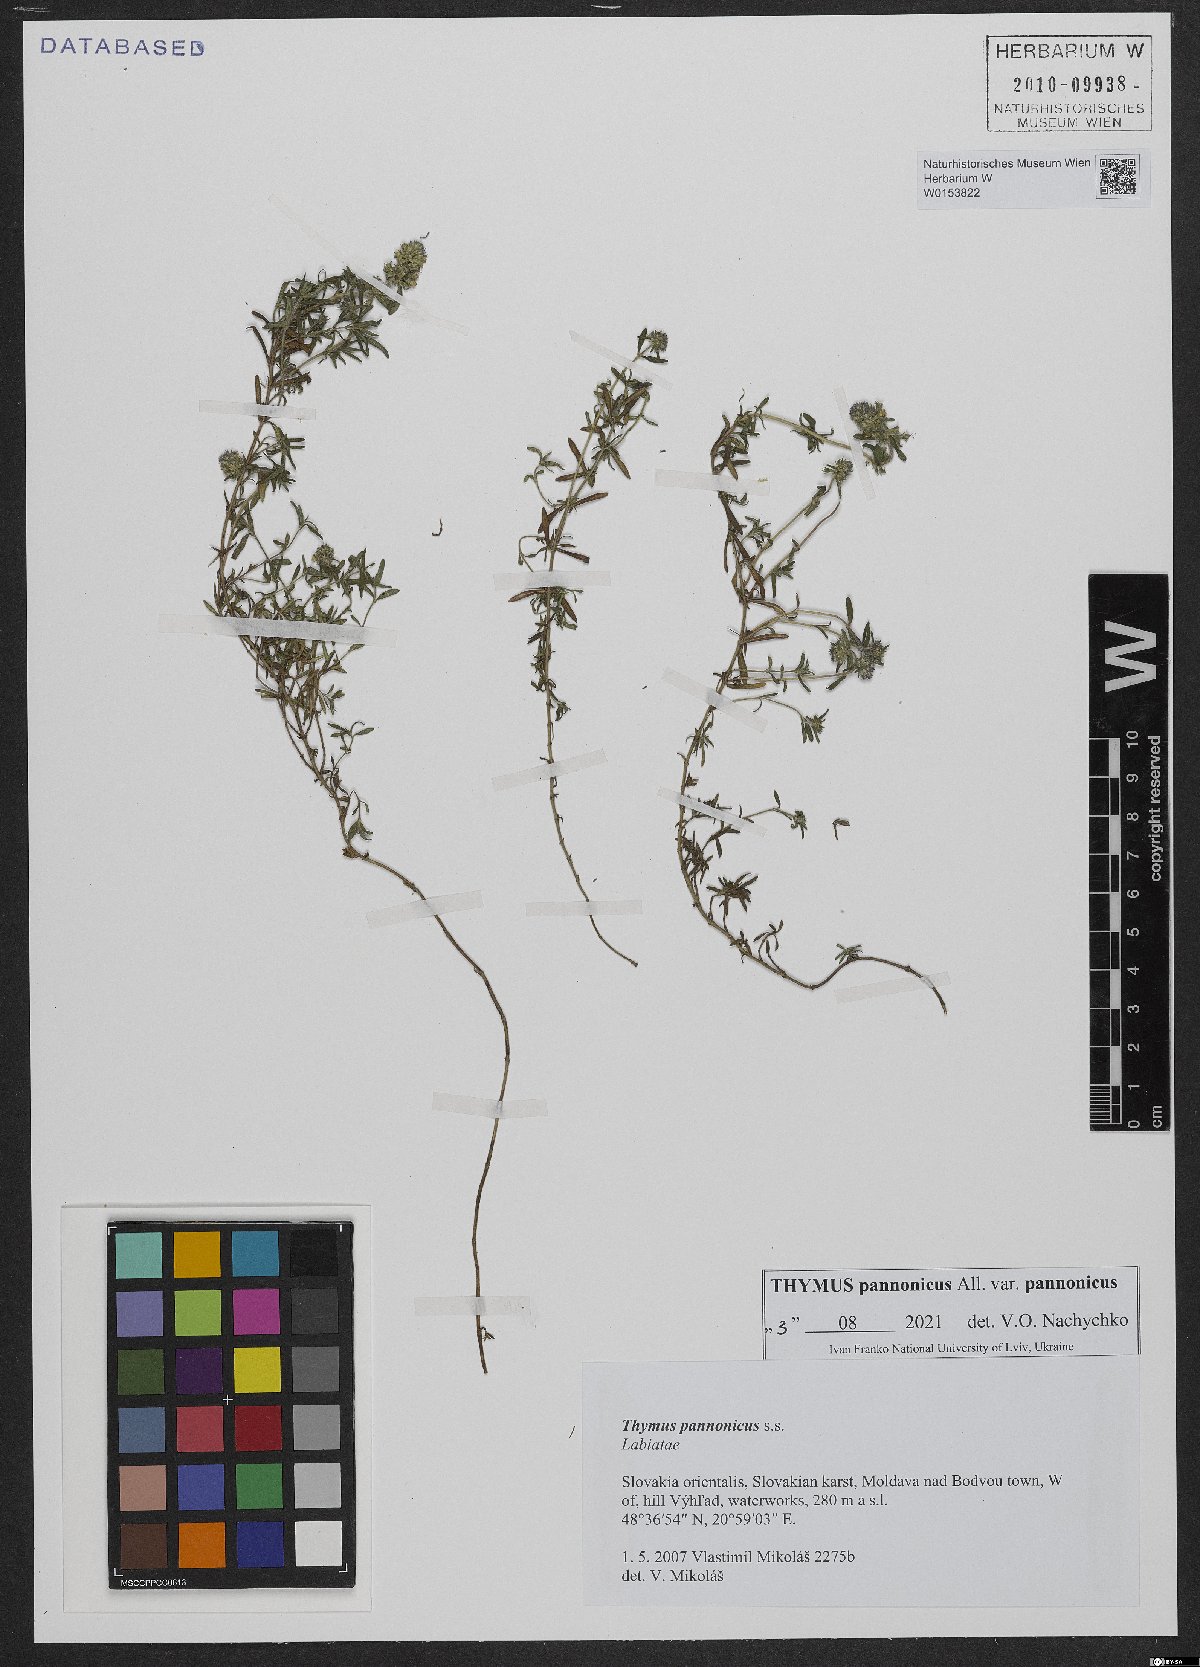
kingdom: Plantae
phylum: Tracheophyta
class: Magnoliopsida
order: Lamiales
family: Lamiaceae
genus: Thymus
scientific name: Thymus pannonicus
